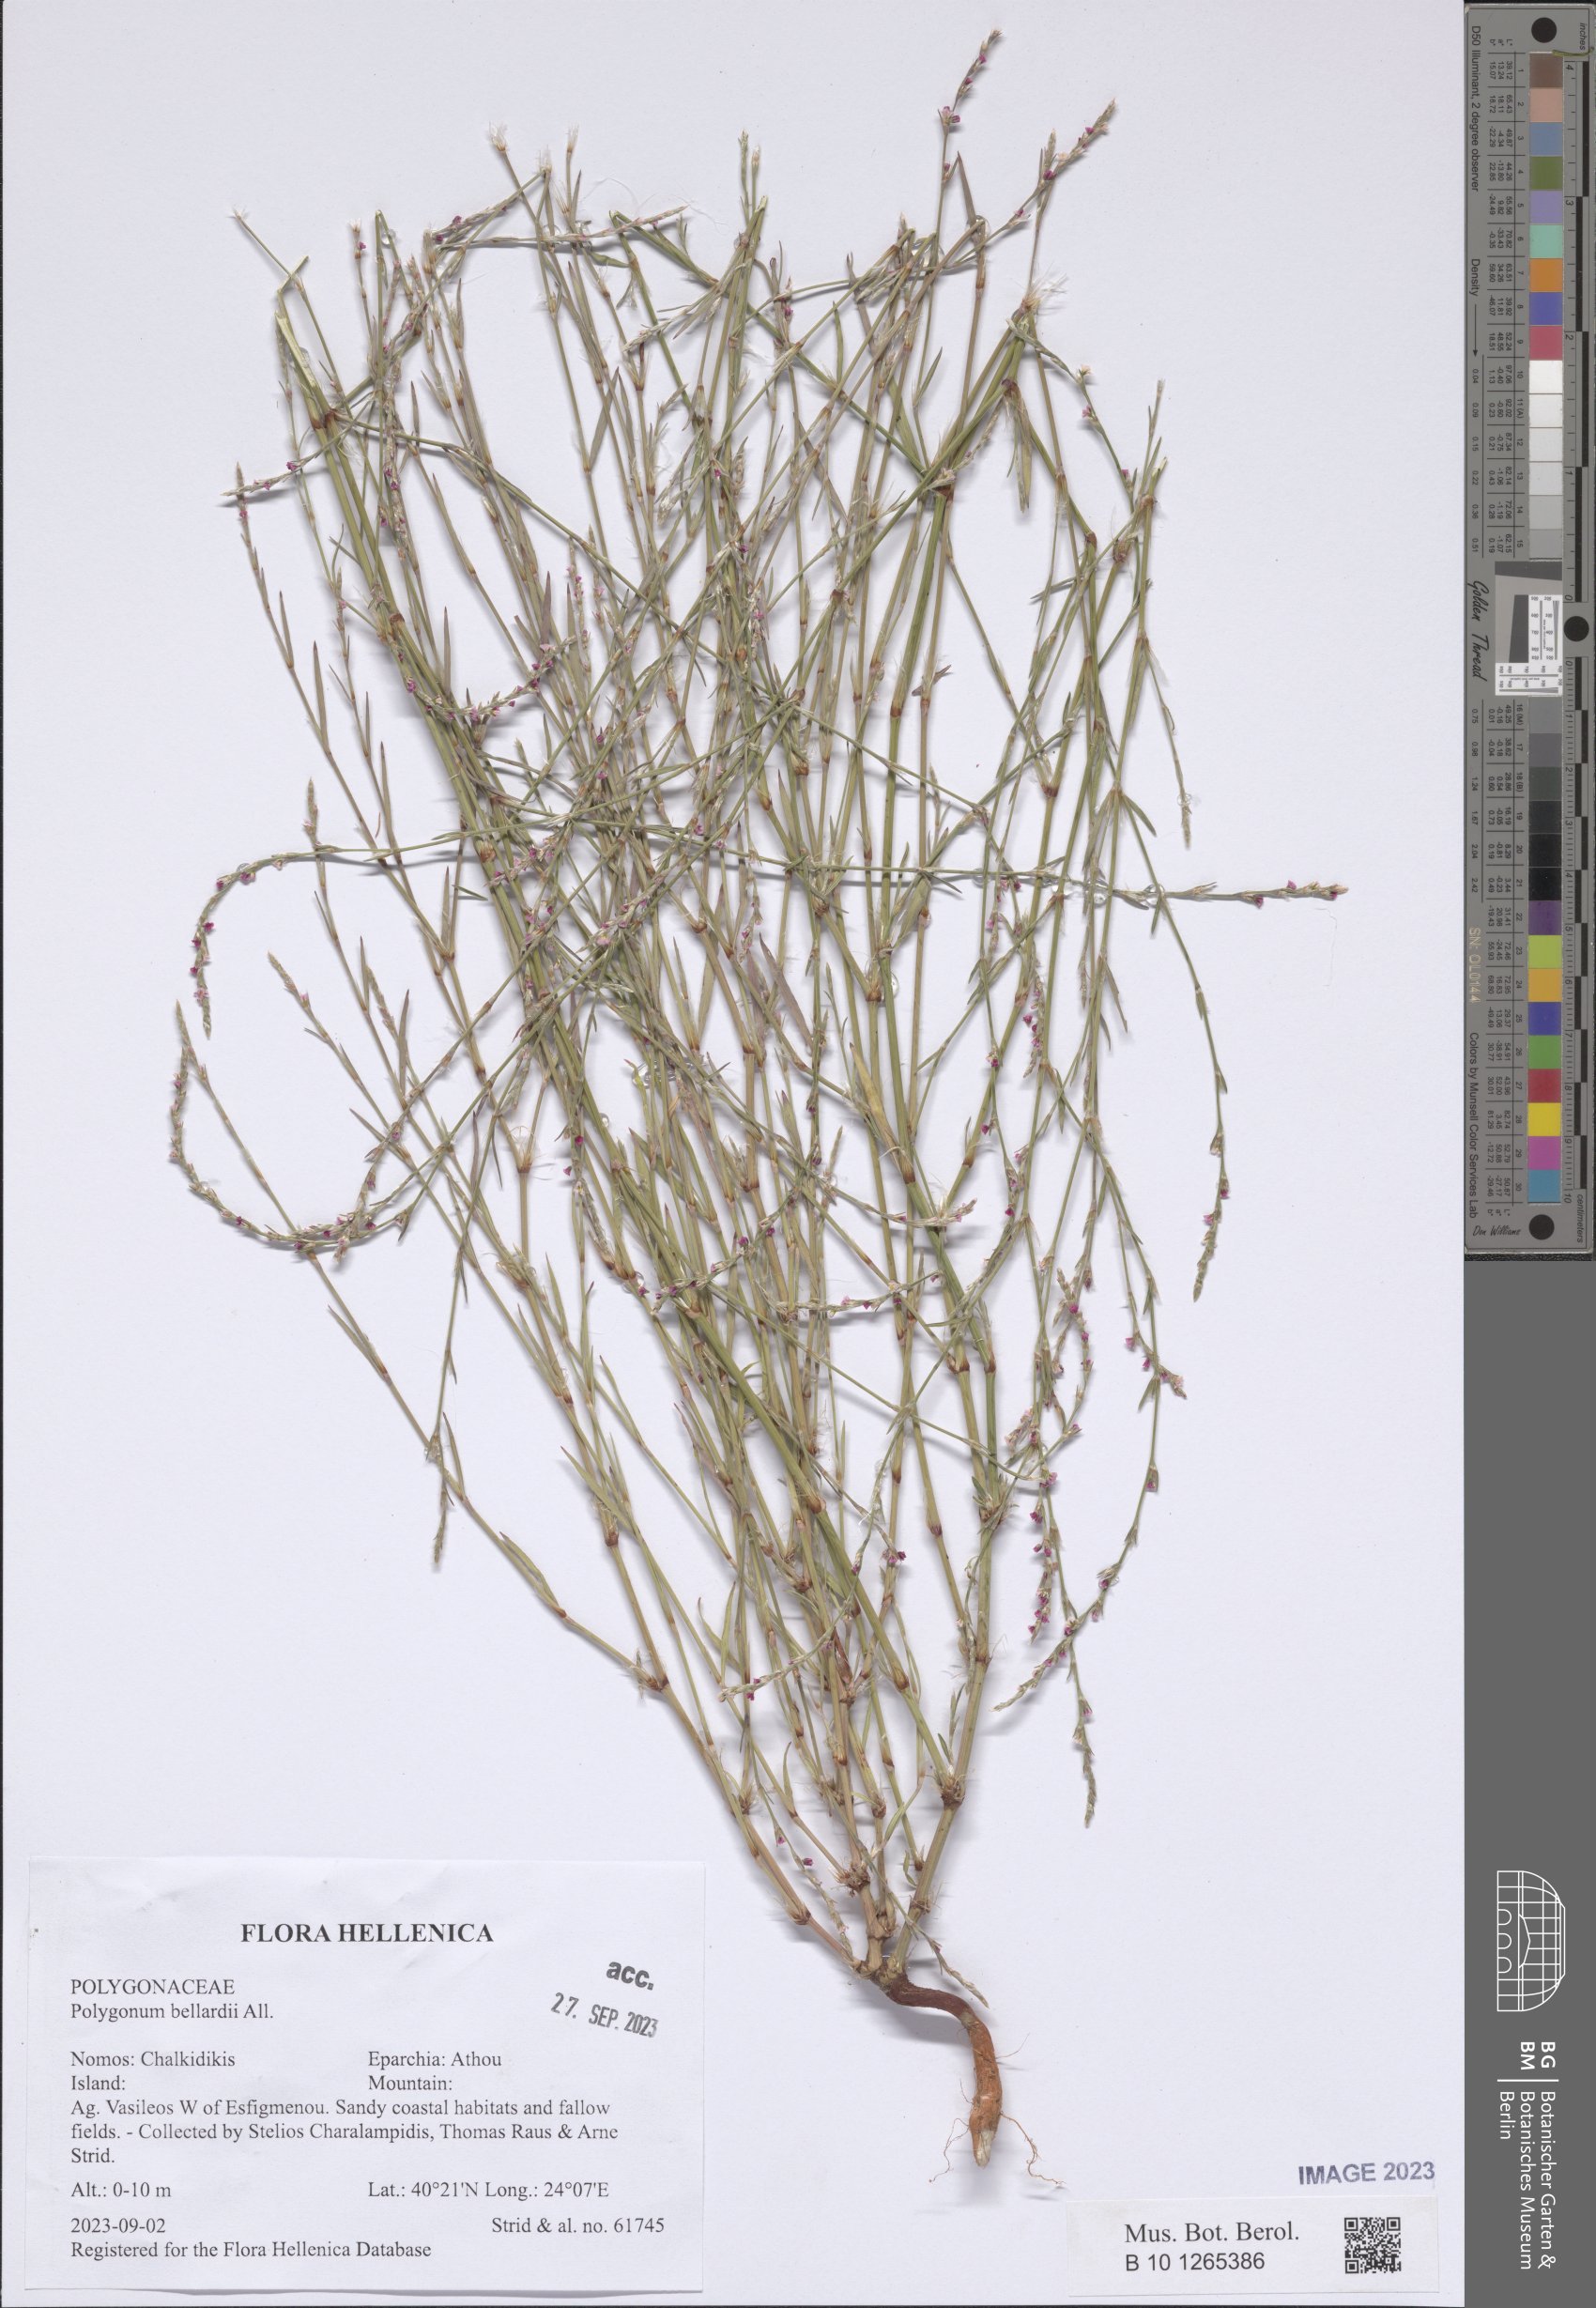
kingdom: Plantae
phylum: Tracheophyta
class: Magnoliopsida
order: Caryophyllales
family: Polygonaceae
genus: Polygonum
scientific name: Polygonum bellardii
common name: Narrowleaf knotweed
